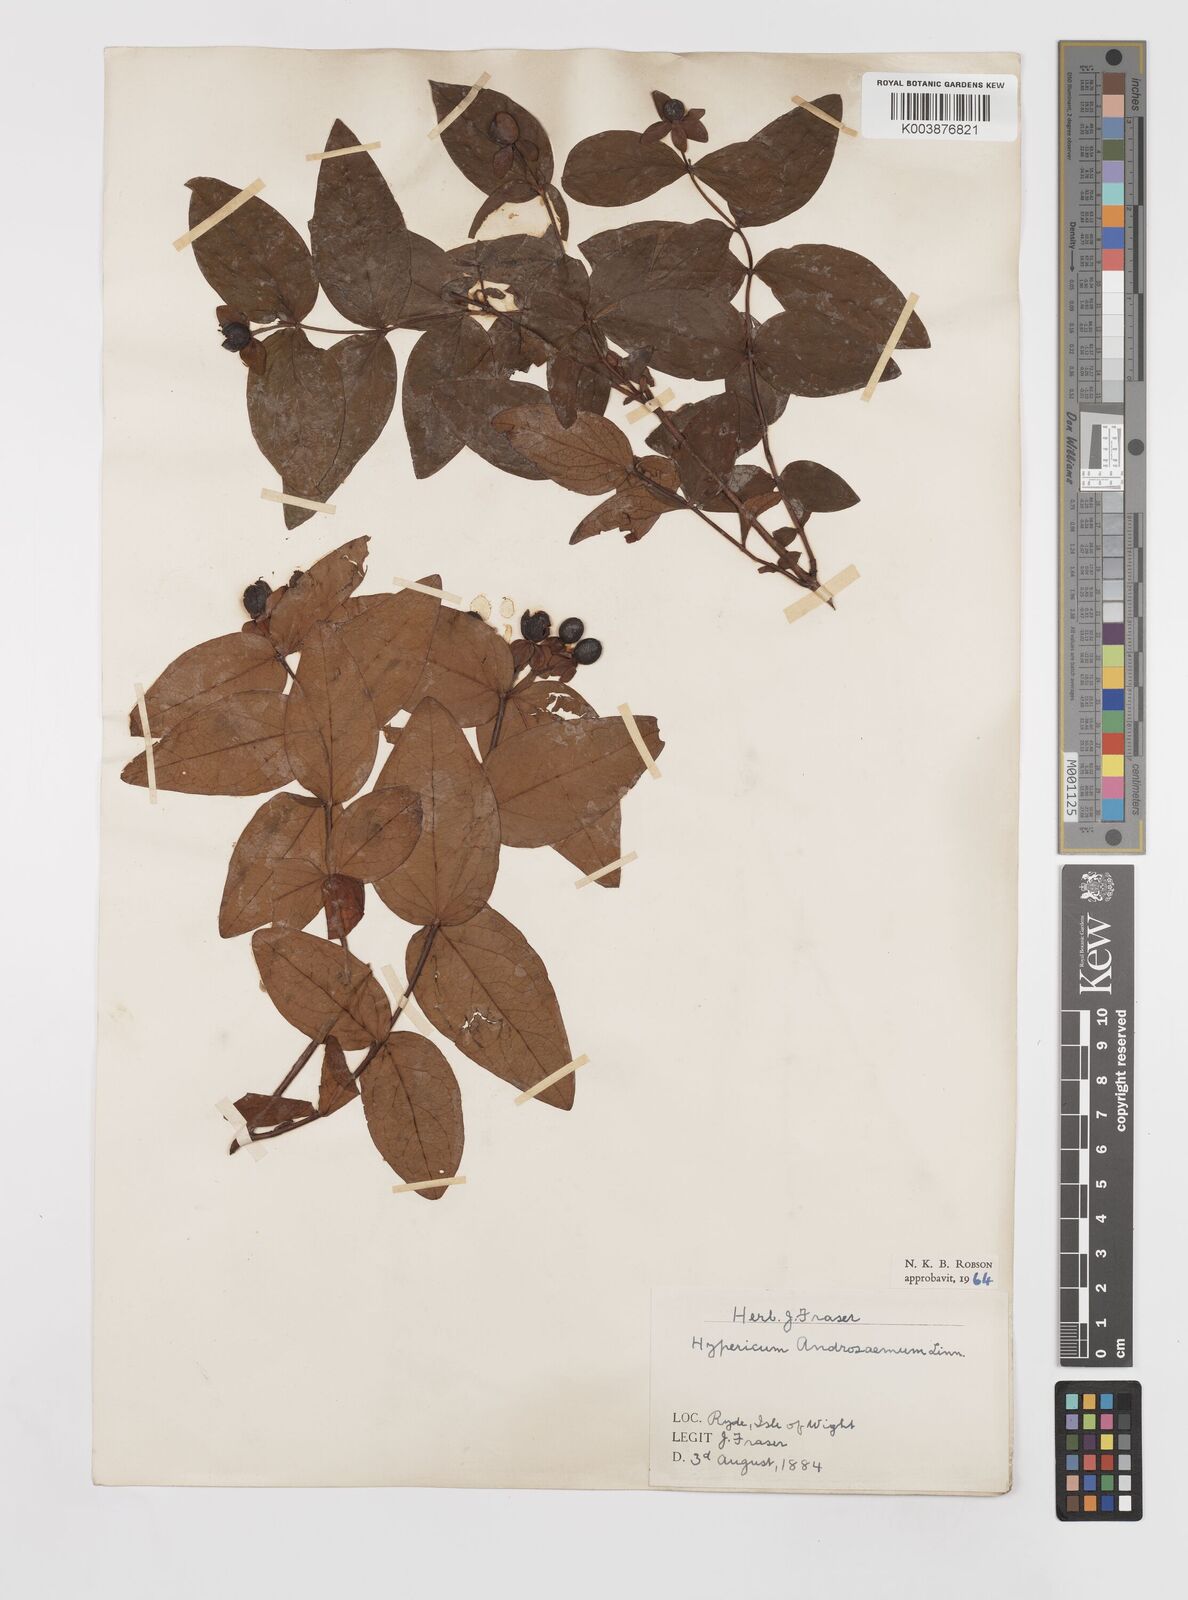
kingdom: Plantae
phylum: Tracheophyta
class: Magnoliopsida
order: Malpighiales
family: Hypericaceae
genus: Hypericum
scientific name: Hypericum androsaemum
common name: Sweet-amber
